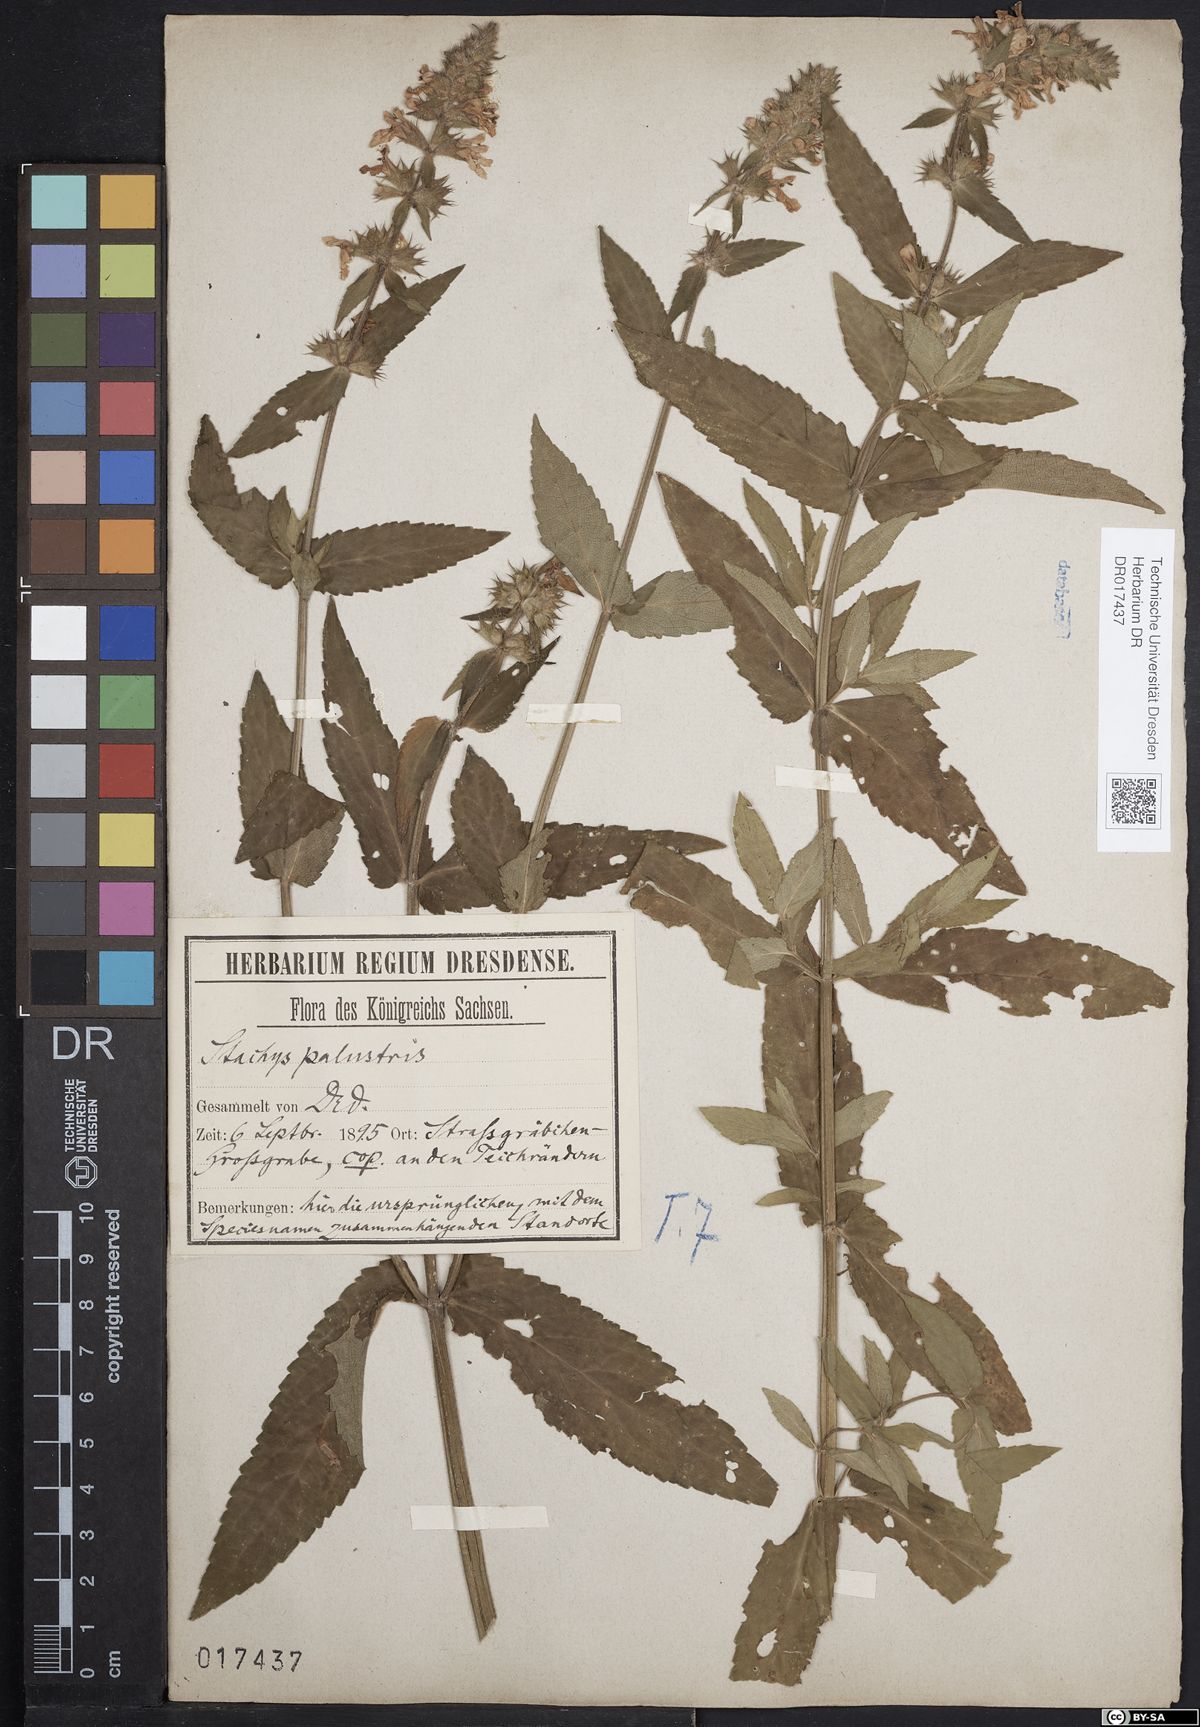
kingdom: Plantae
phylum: Tracheophyta
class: Magnoliopsida
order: Lamiales
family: Lamiaceae
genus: Stachys
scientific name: Stachys palustris
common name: Marsh woundwort
